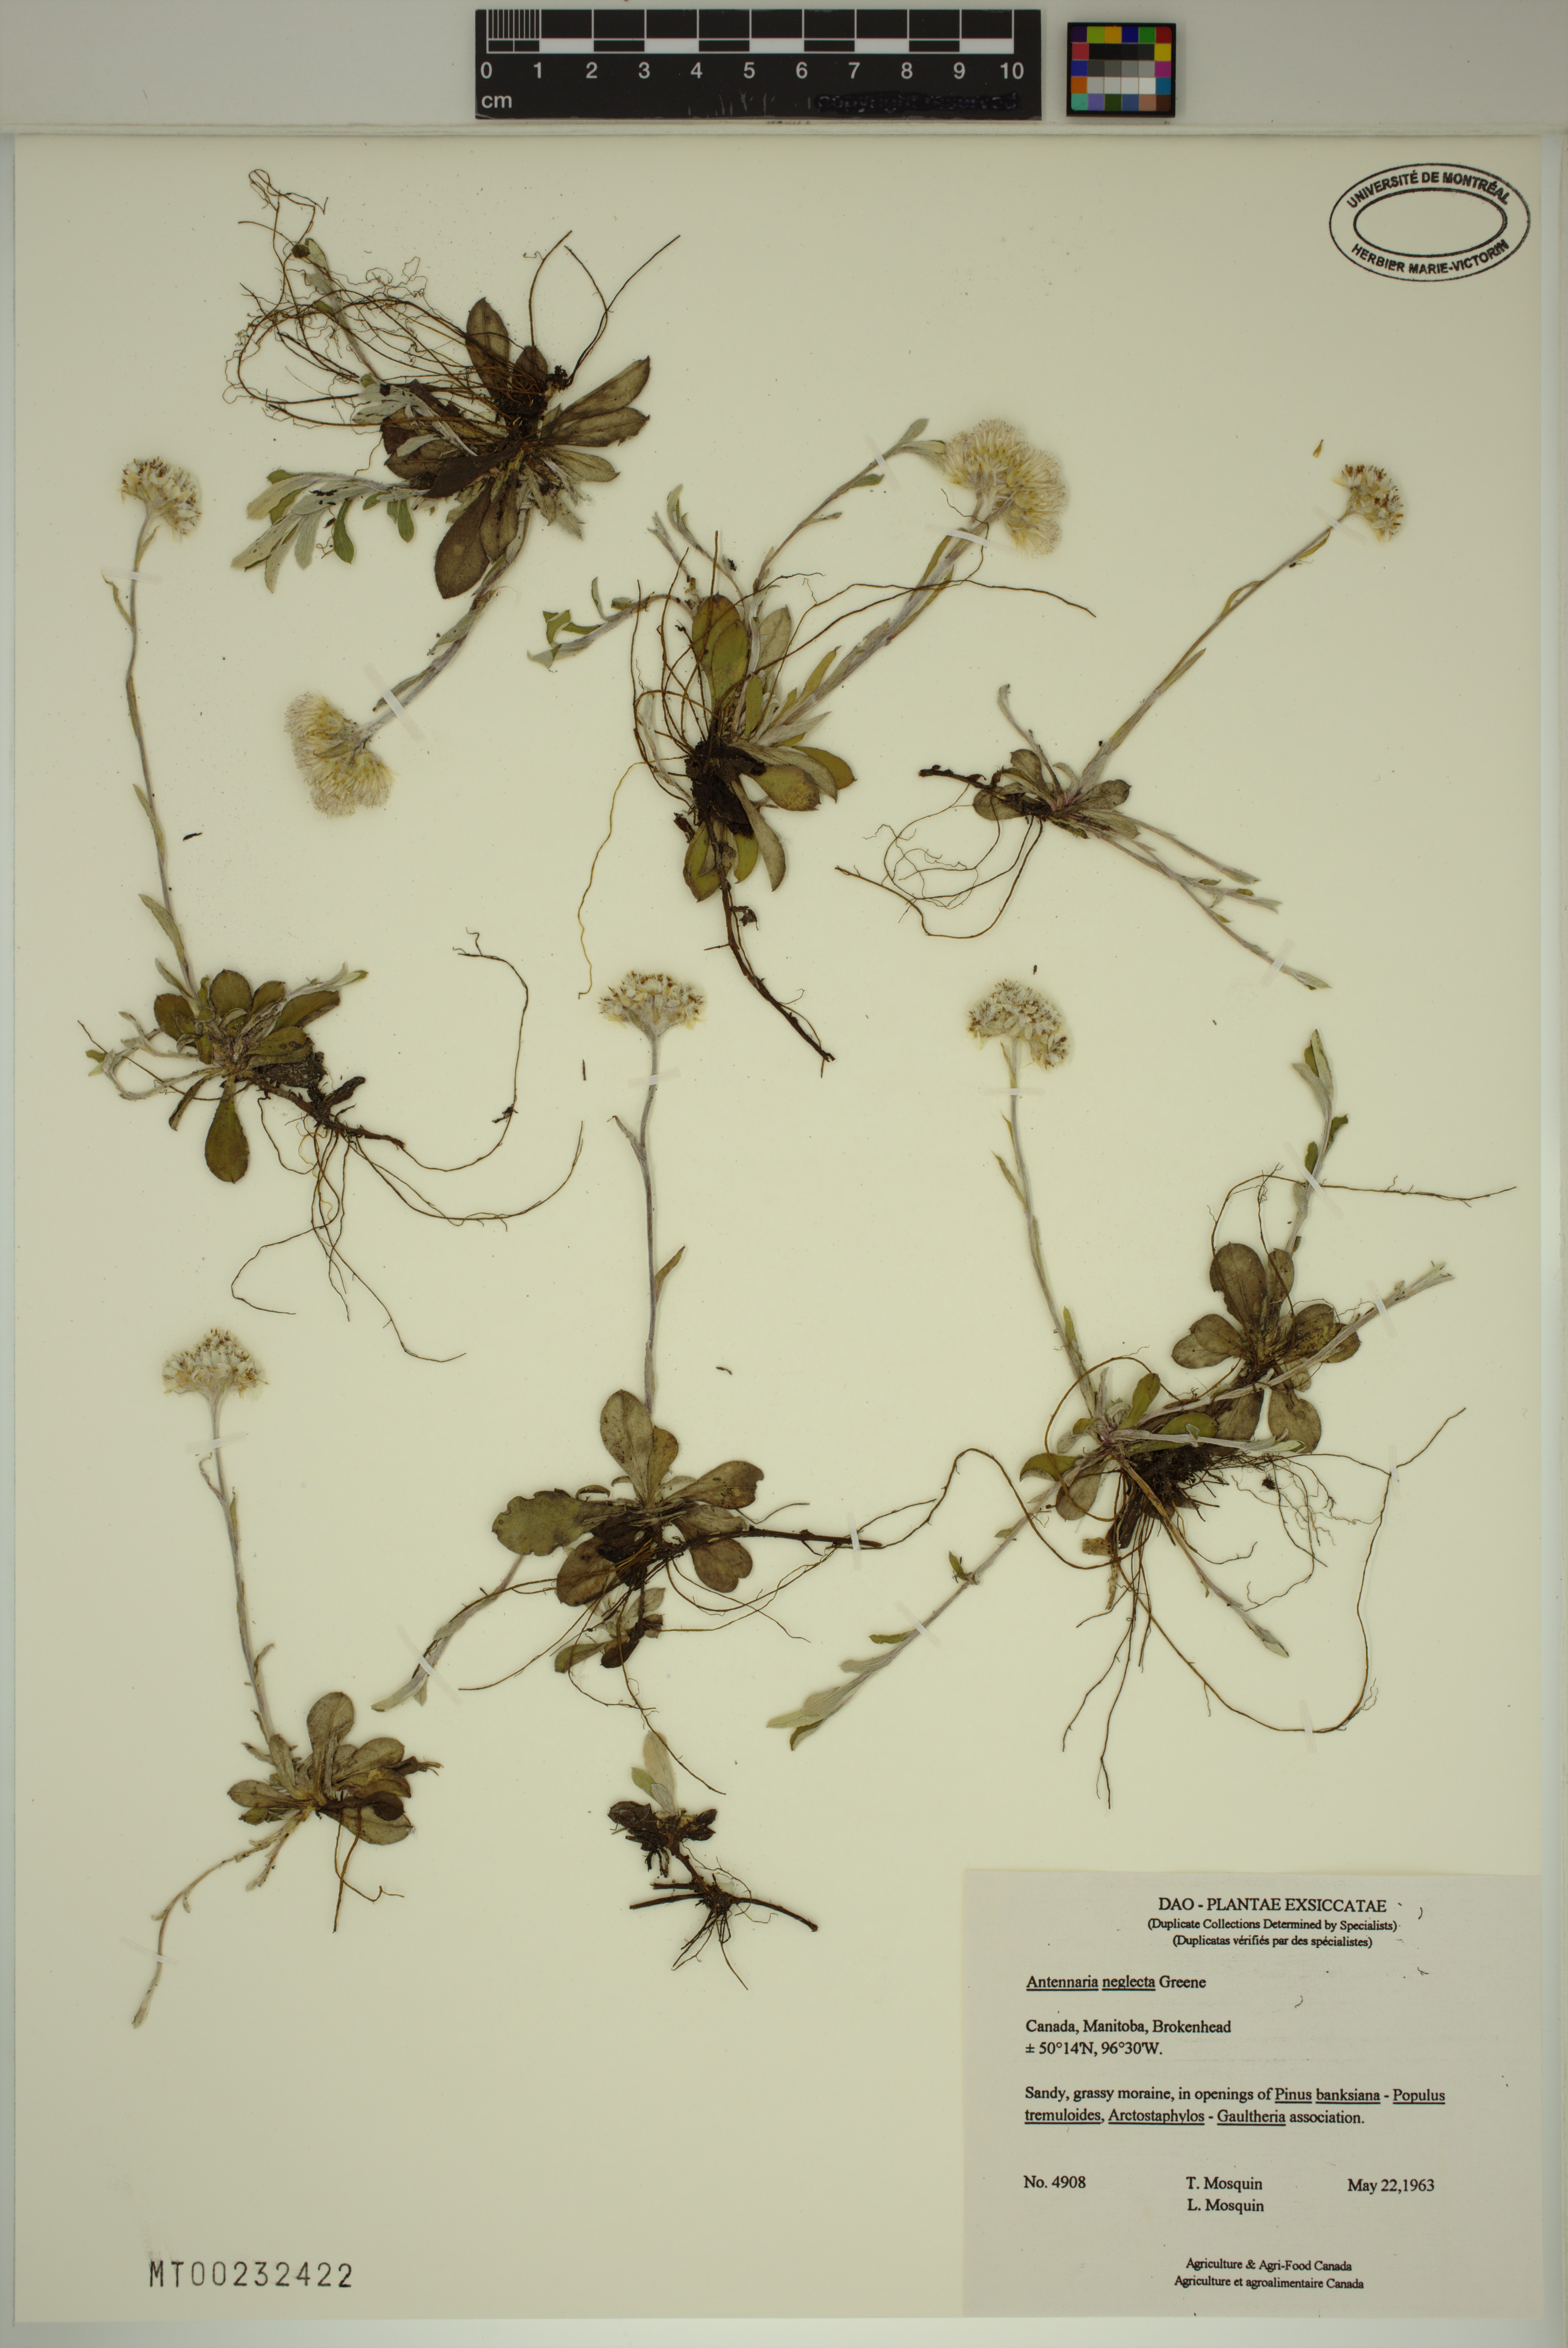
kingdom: Plantae
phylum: Tracheophyta
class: Magnoliopsida
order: Asterales
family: Asteraceae
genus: Antennaria
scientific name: Antennaria neglecta
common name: Field pussytoes
